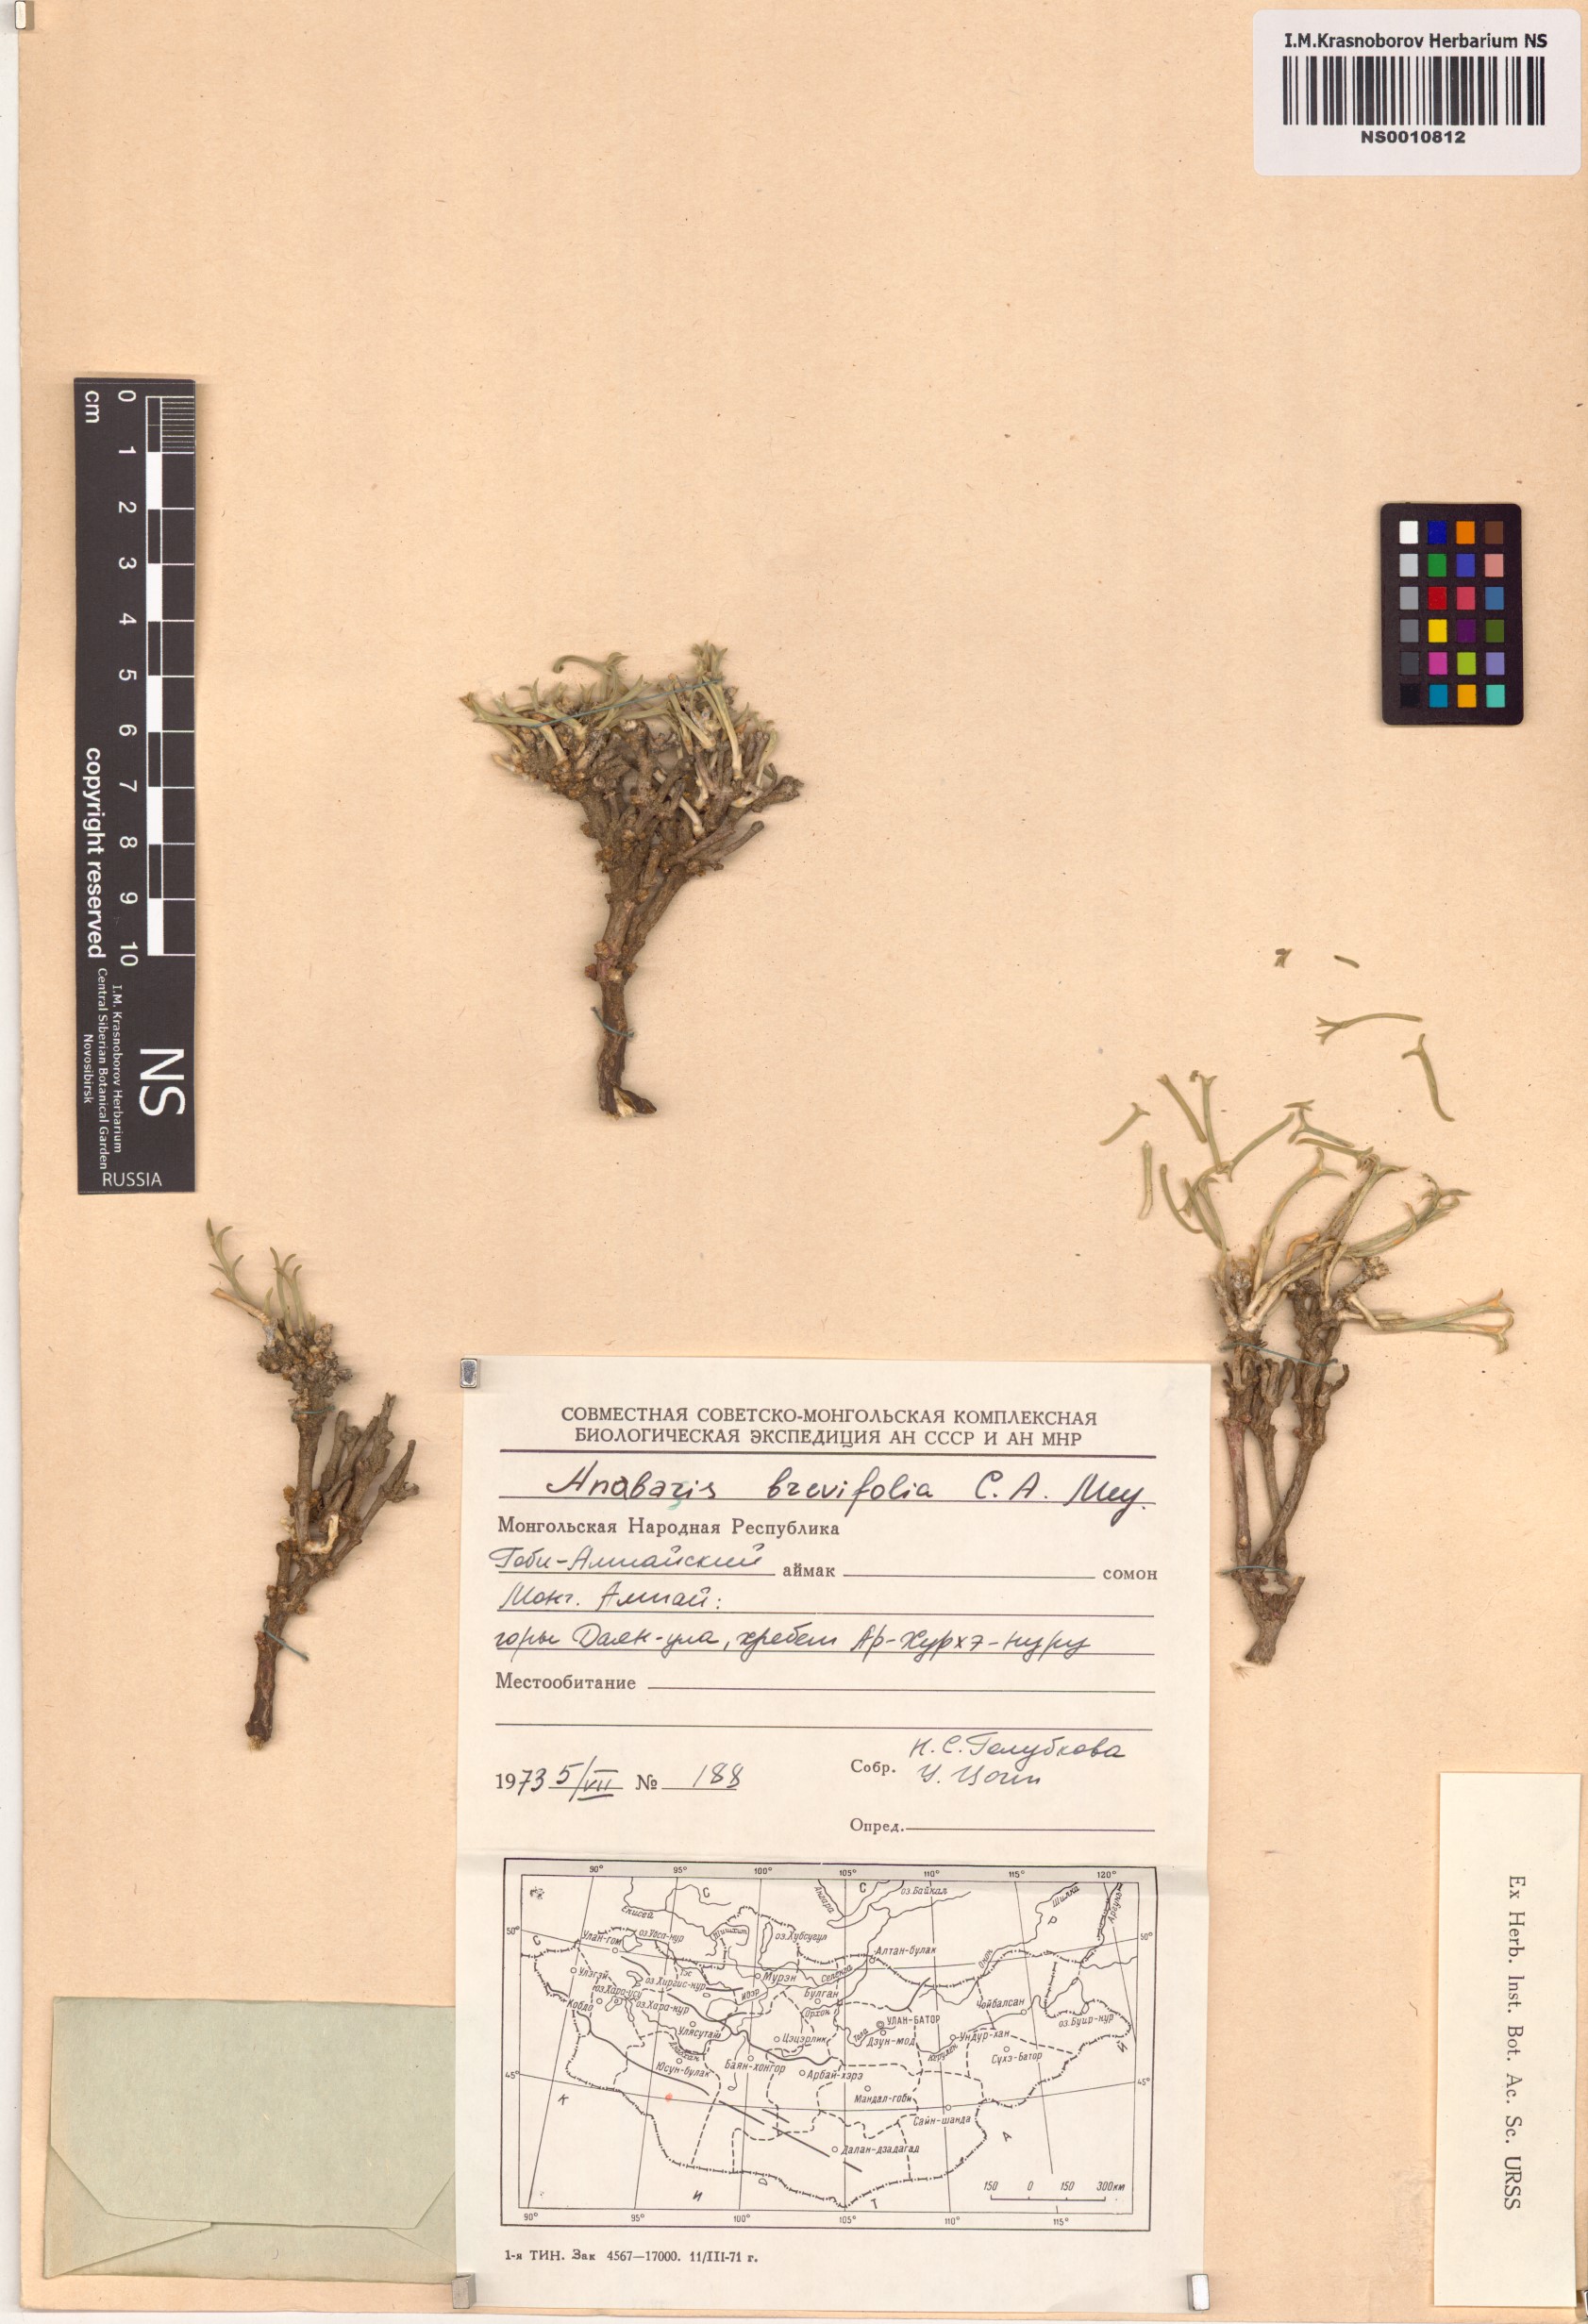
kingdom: Plantae
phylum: Tracheophyta
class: Magnoliopsida
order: Caryophyllales
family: Amaranthaceae
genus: Anabasis
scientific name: Anabasis brevifolia
